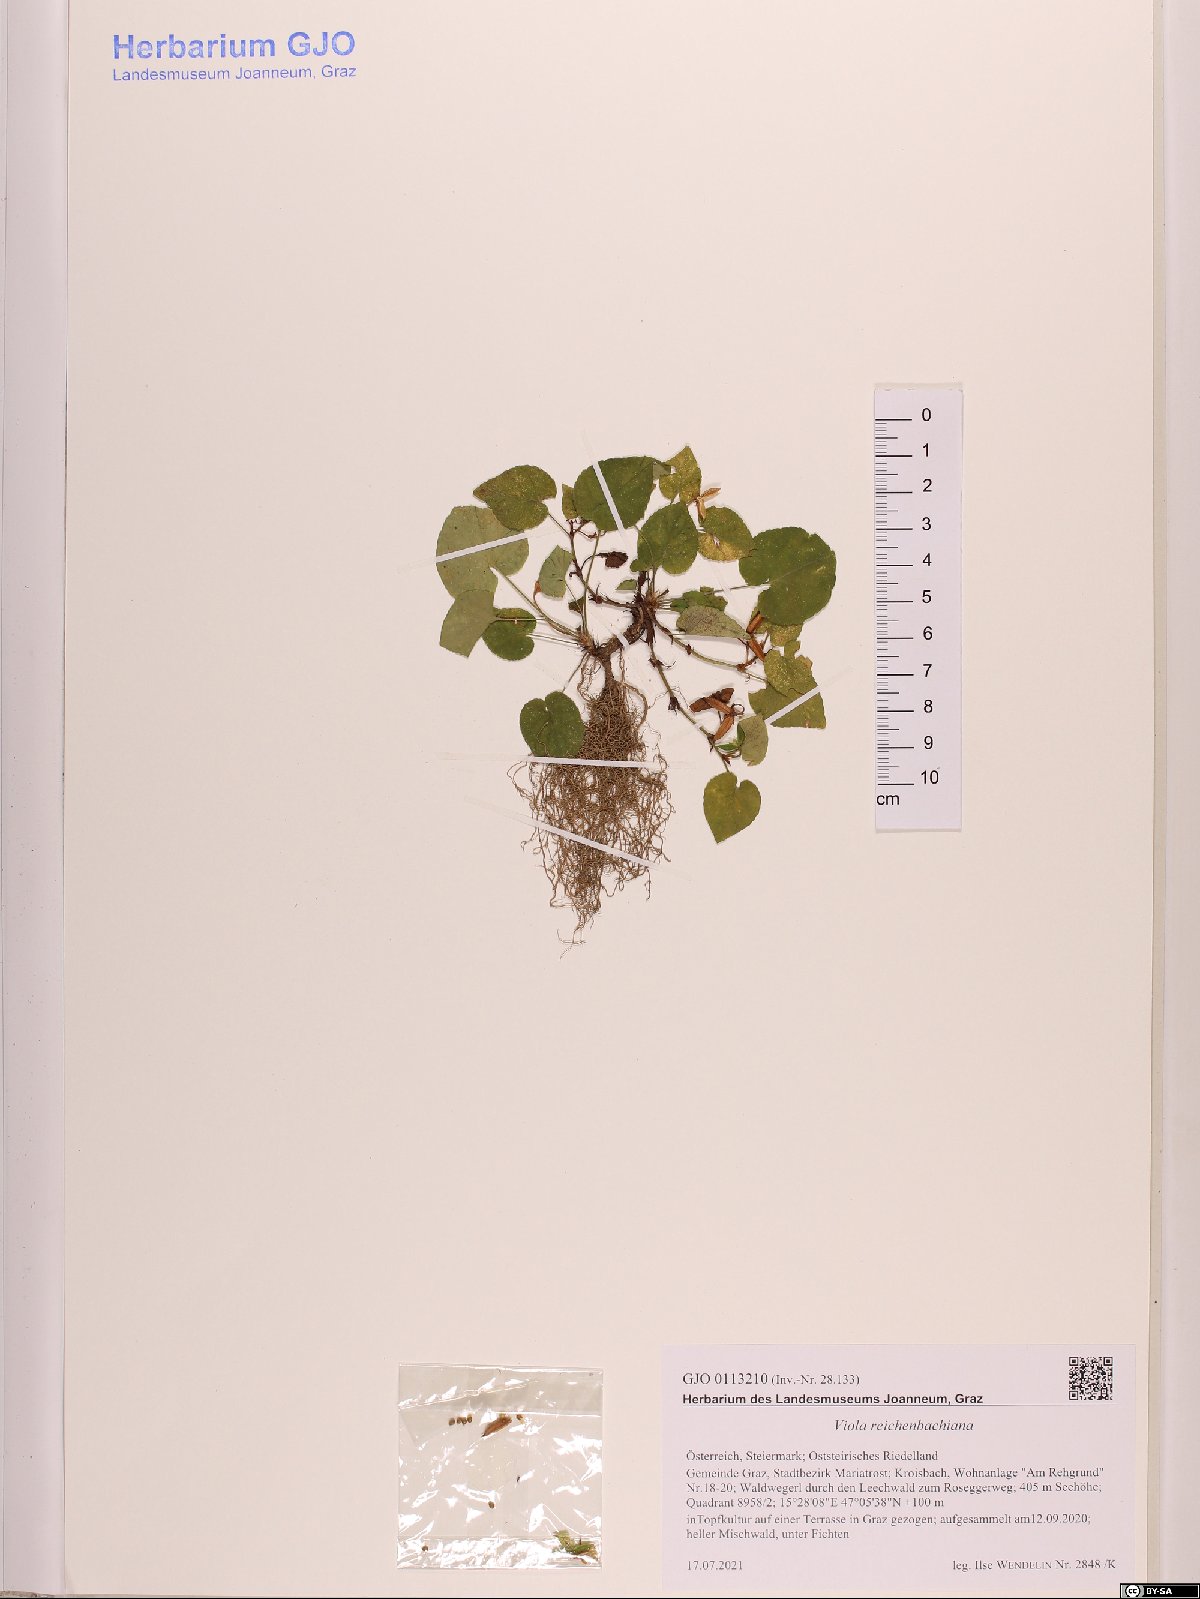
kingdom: Plantae
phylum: Tracheophyta
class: Magnoliopsida
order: Malpighiales
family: Violaceae
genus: Viola
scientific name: Viola reichenbachiana
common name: Early dog-violet
